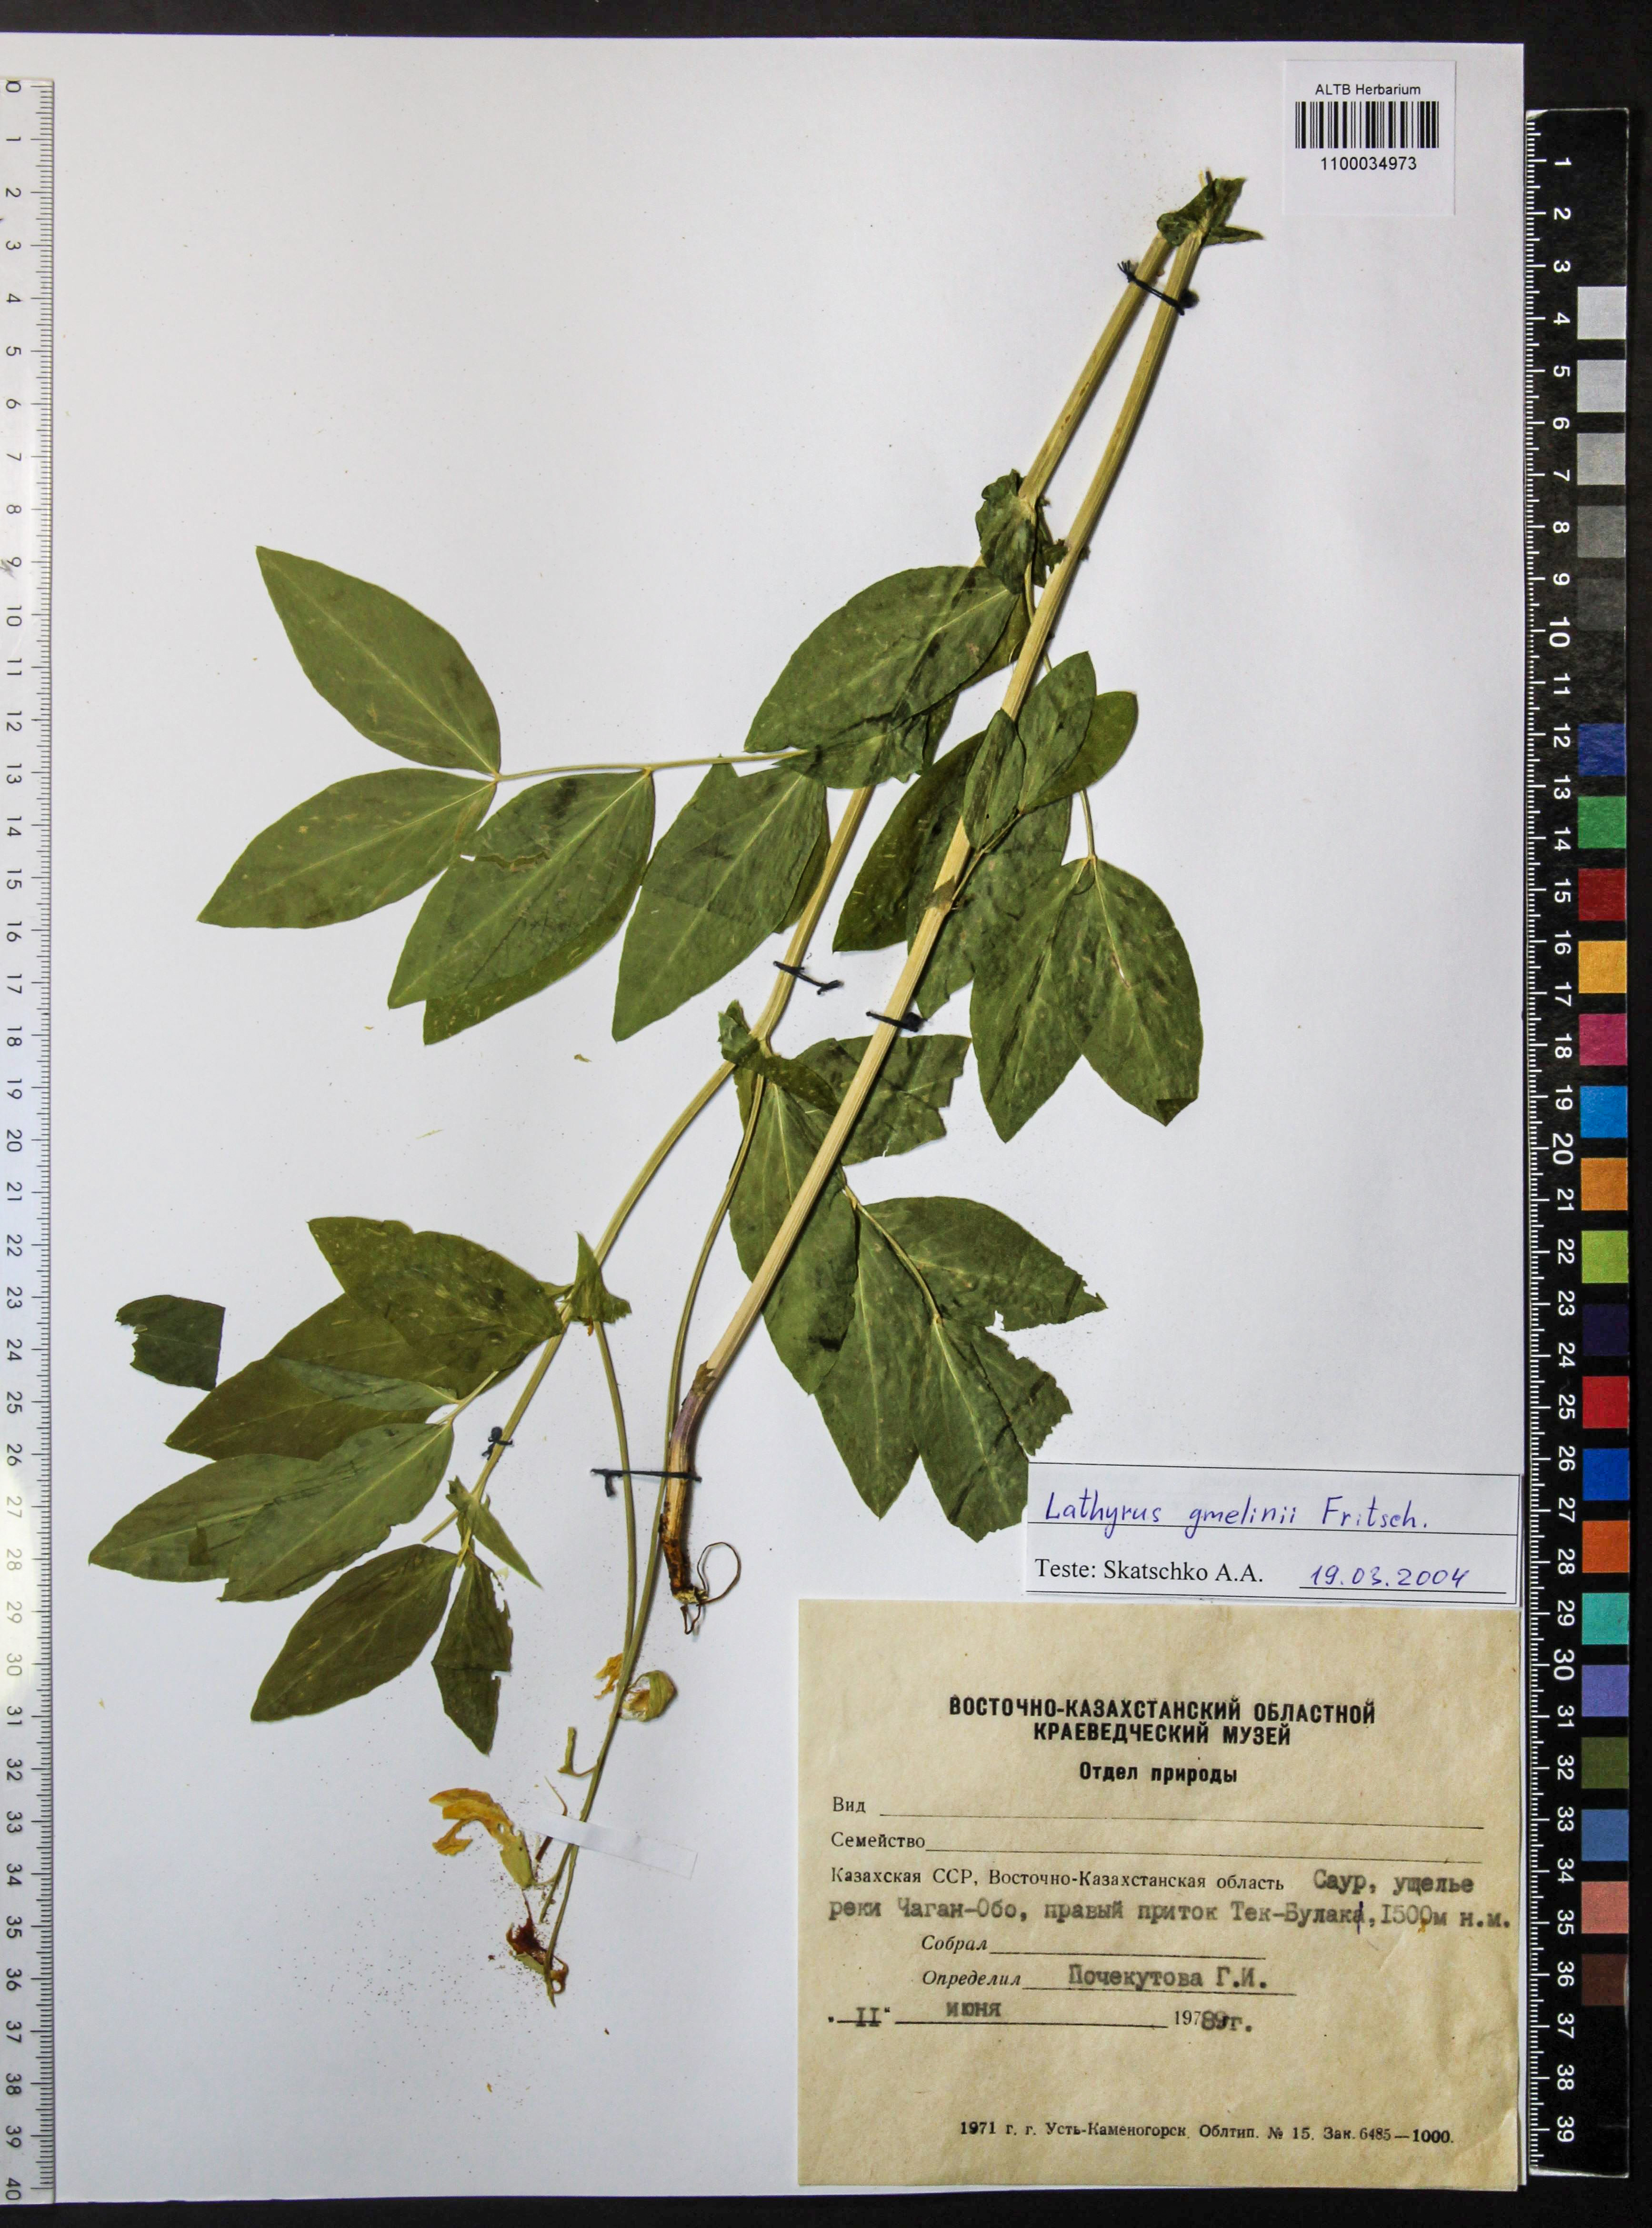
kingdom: Plantae
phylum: Tracheophyta
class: Magnoliopsida
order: Fabales
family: Fabaceae
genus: Lathyrus
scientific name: Lathyrus gmelinii
